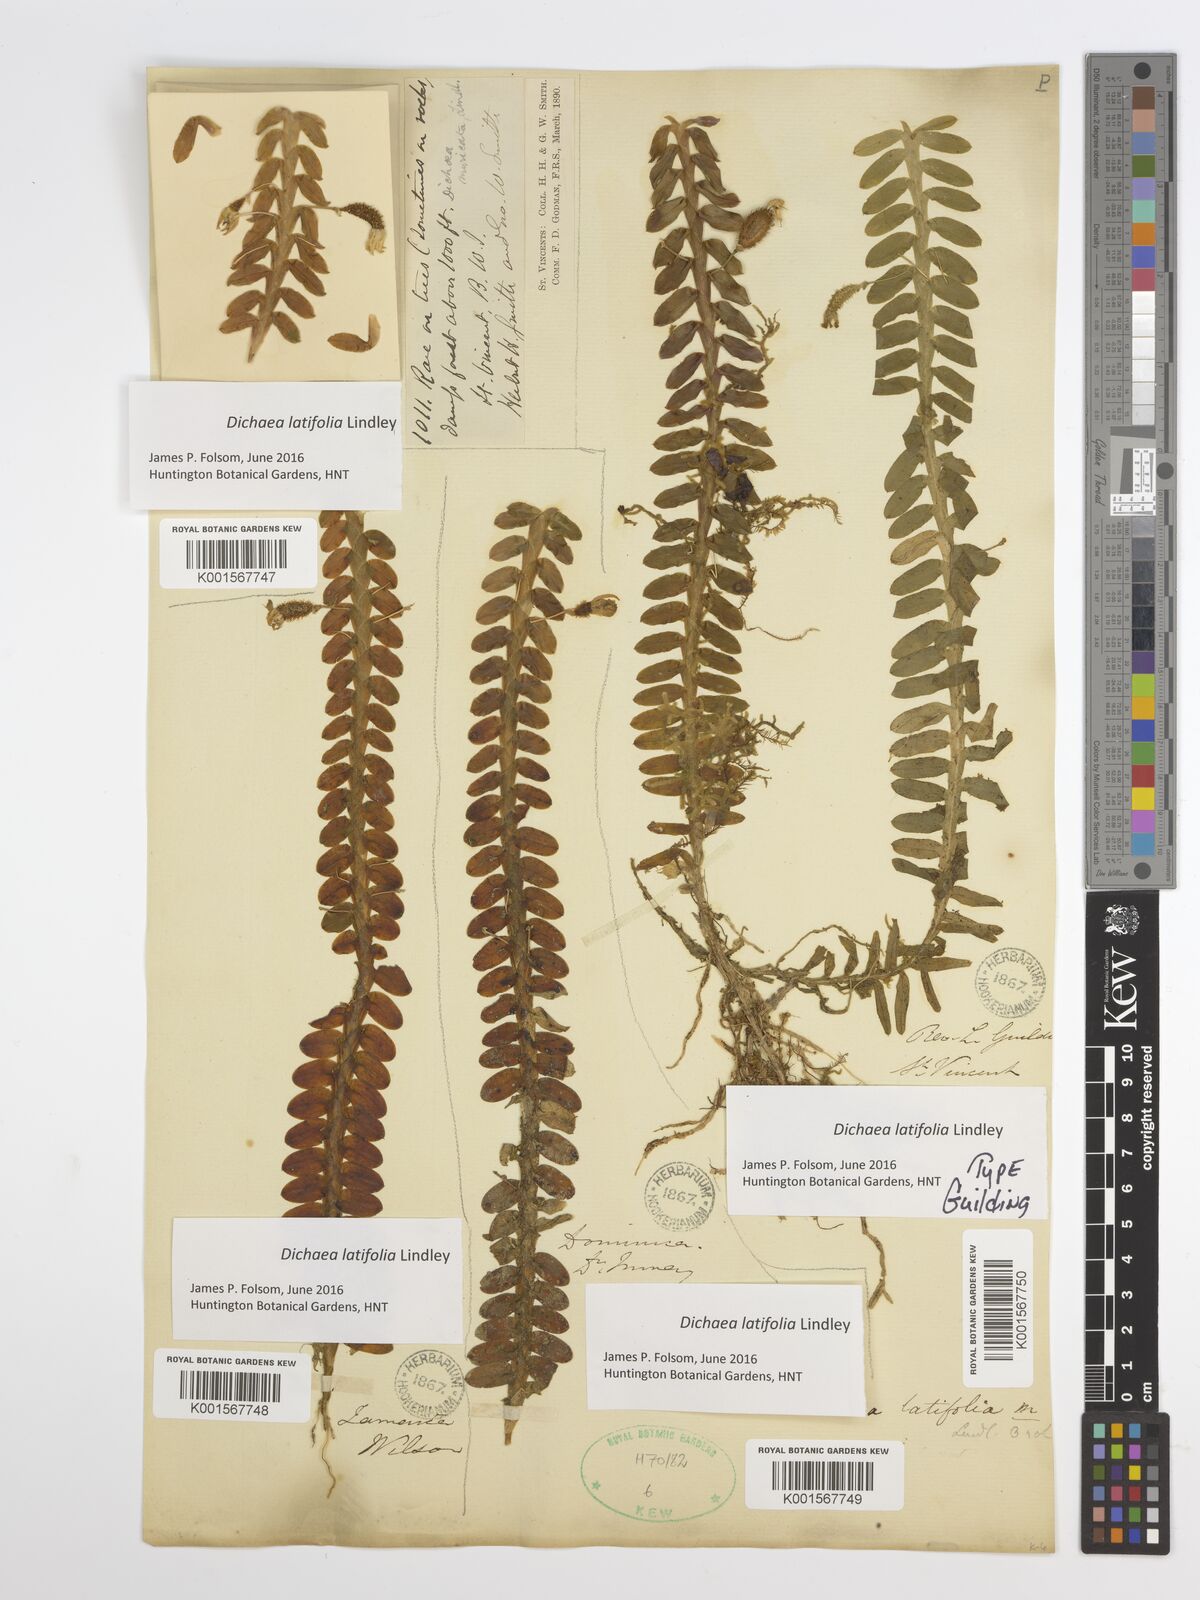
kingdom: Plantae
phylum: Tracheophyta
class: Liliopsida
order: Asparagales
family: Orchidaceae
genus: Dichaea
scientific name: Dichaea latifolia
